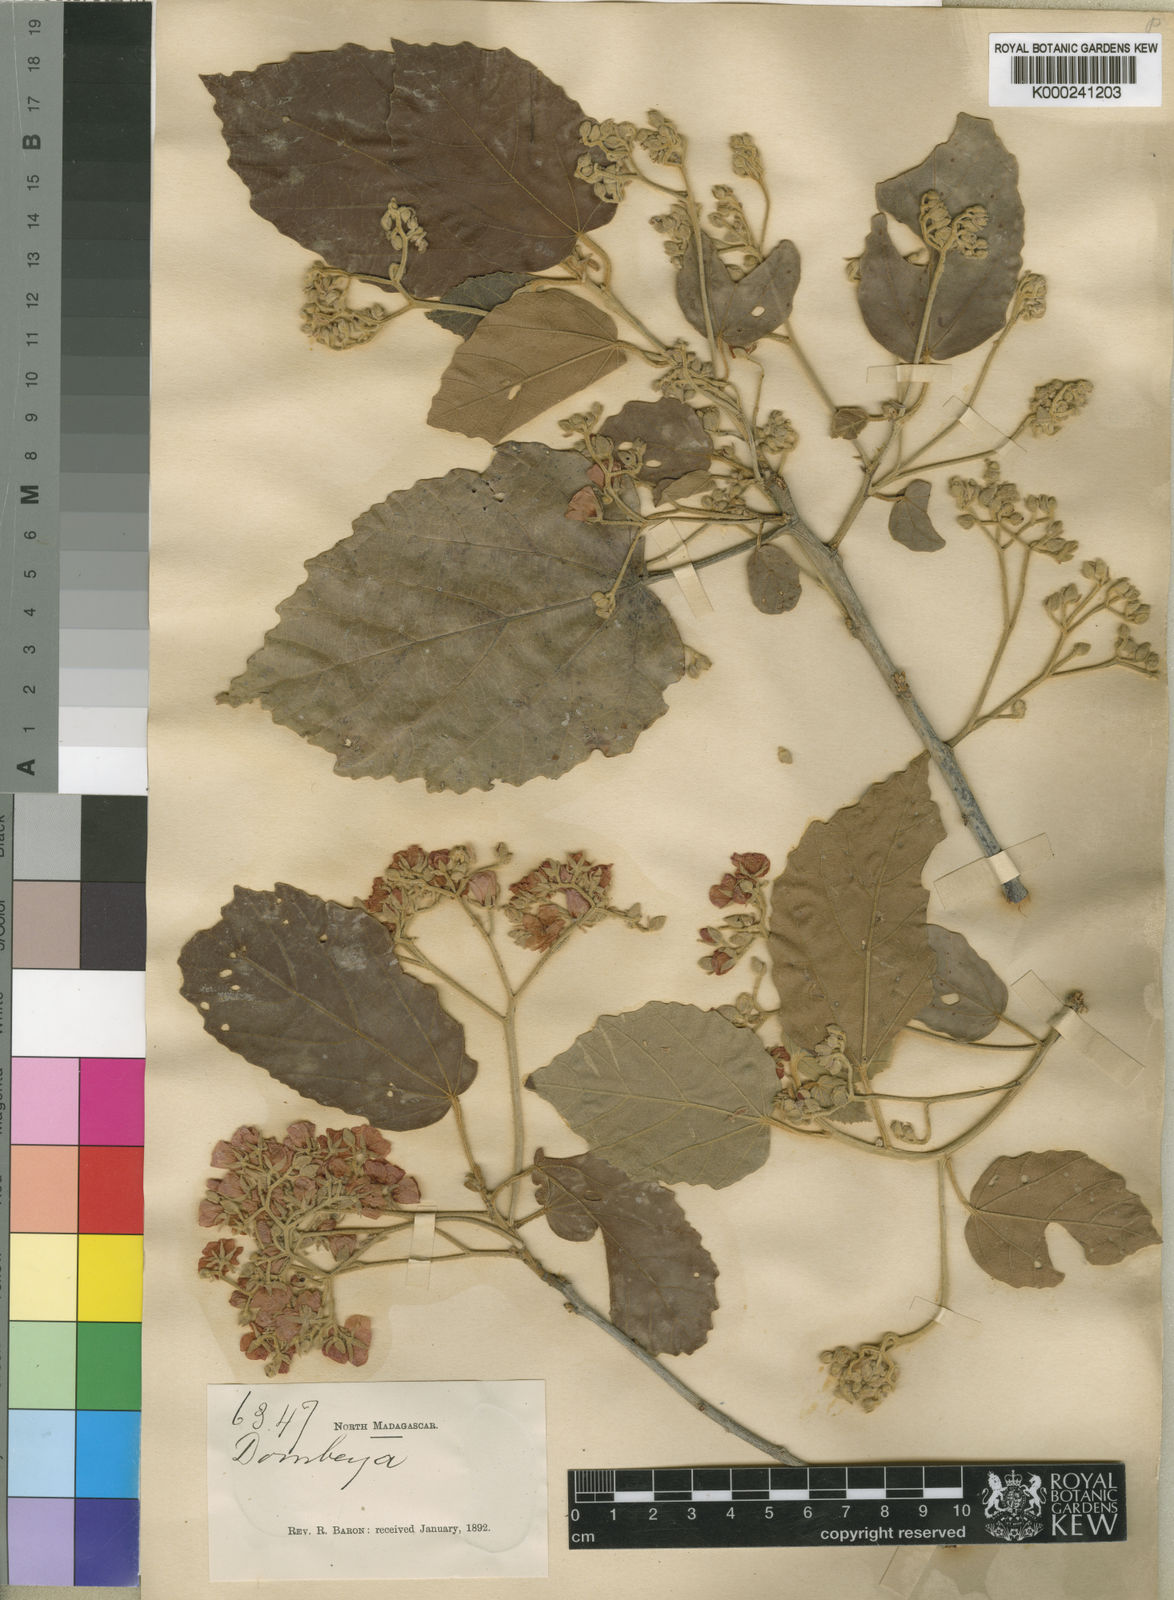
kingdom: Plantae
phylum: Tracheophyta
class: Magnoliopsida
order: Malvales
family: Malvaceae
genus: Dombeya
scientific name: Dombeya pubescens
